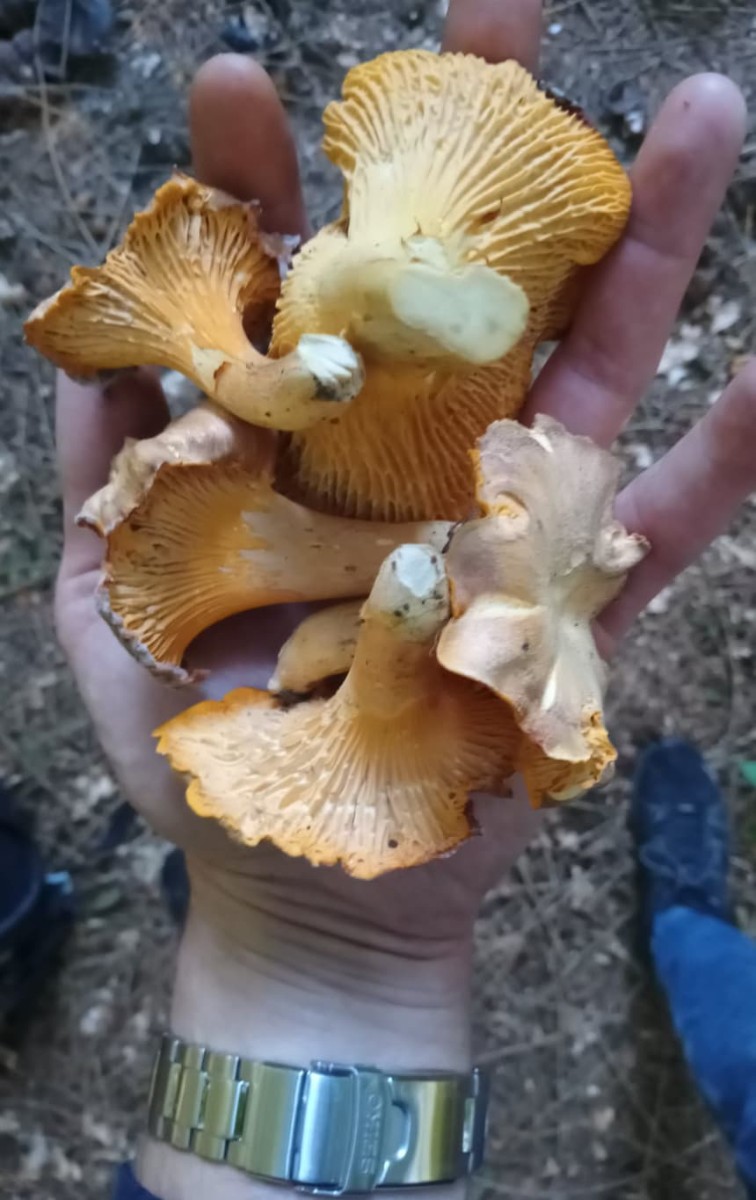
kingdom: Fungi
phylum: Basidiomycota
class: Agaricomycetes
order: Cantharellales
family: Hydnaceae
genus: Cantharellus
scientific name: Cantharellus amethysteus
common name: ametyst-kantarel
